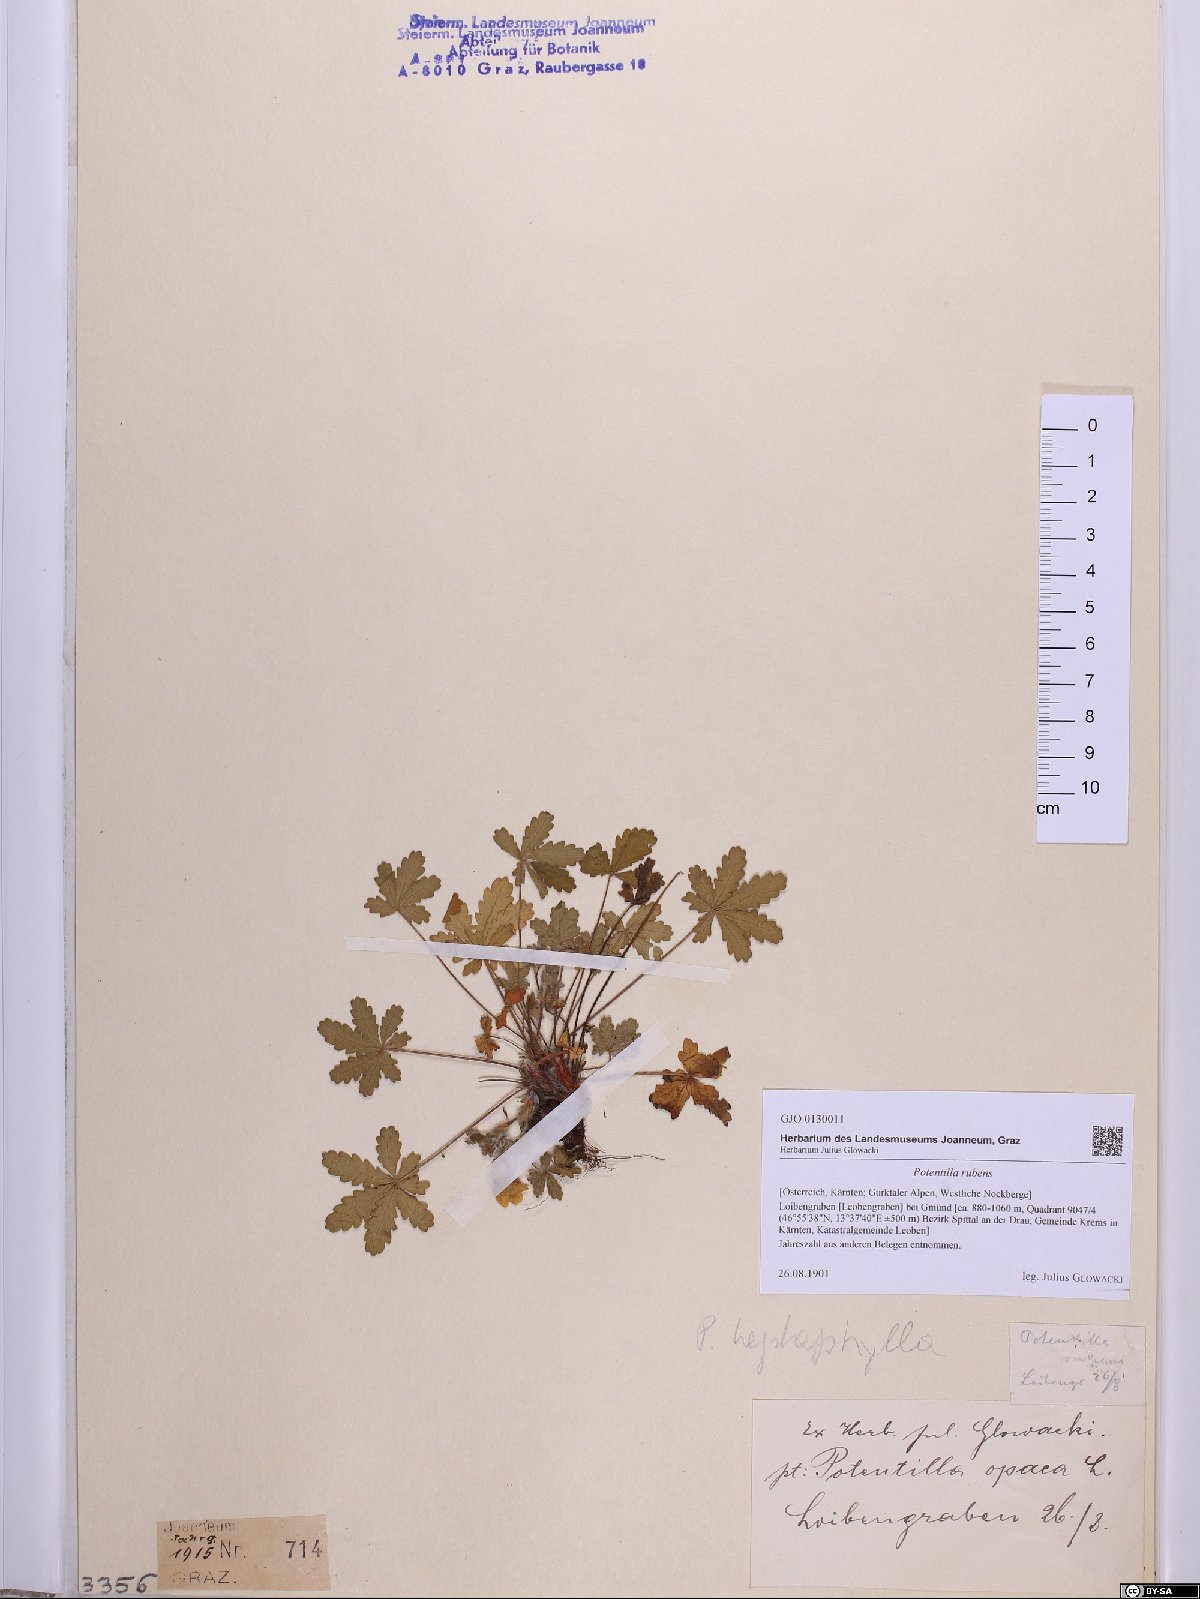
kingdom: Plantae
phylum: Tracheophyta
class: Magnoliopsida
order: Rosales
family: Rosaceae
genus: Potentilla
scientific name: Potentilla heptaphylla
